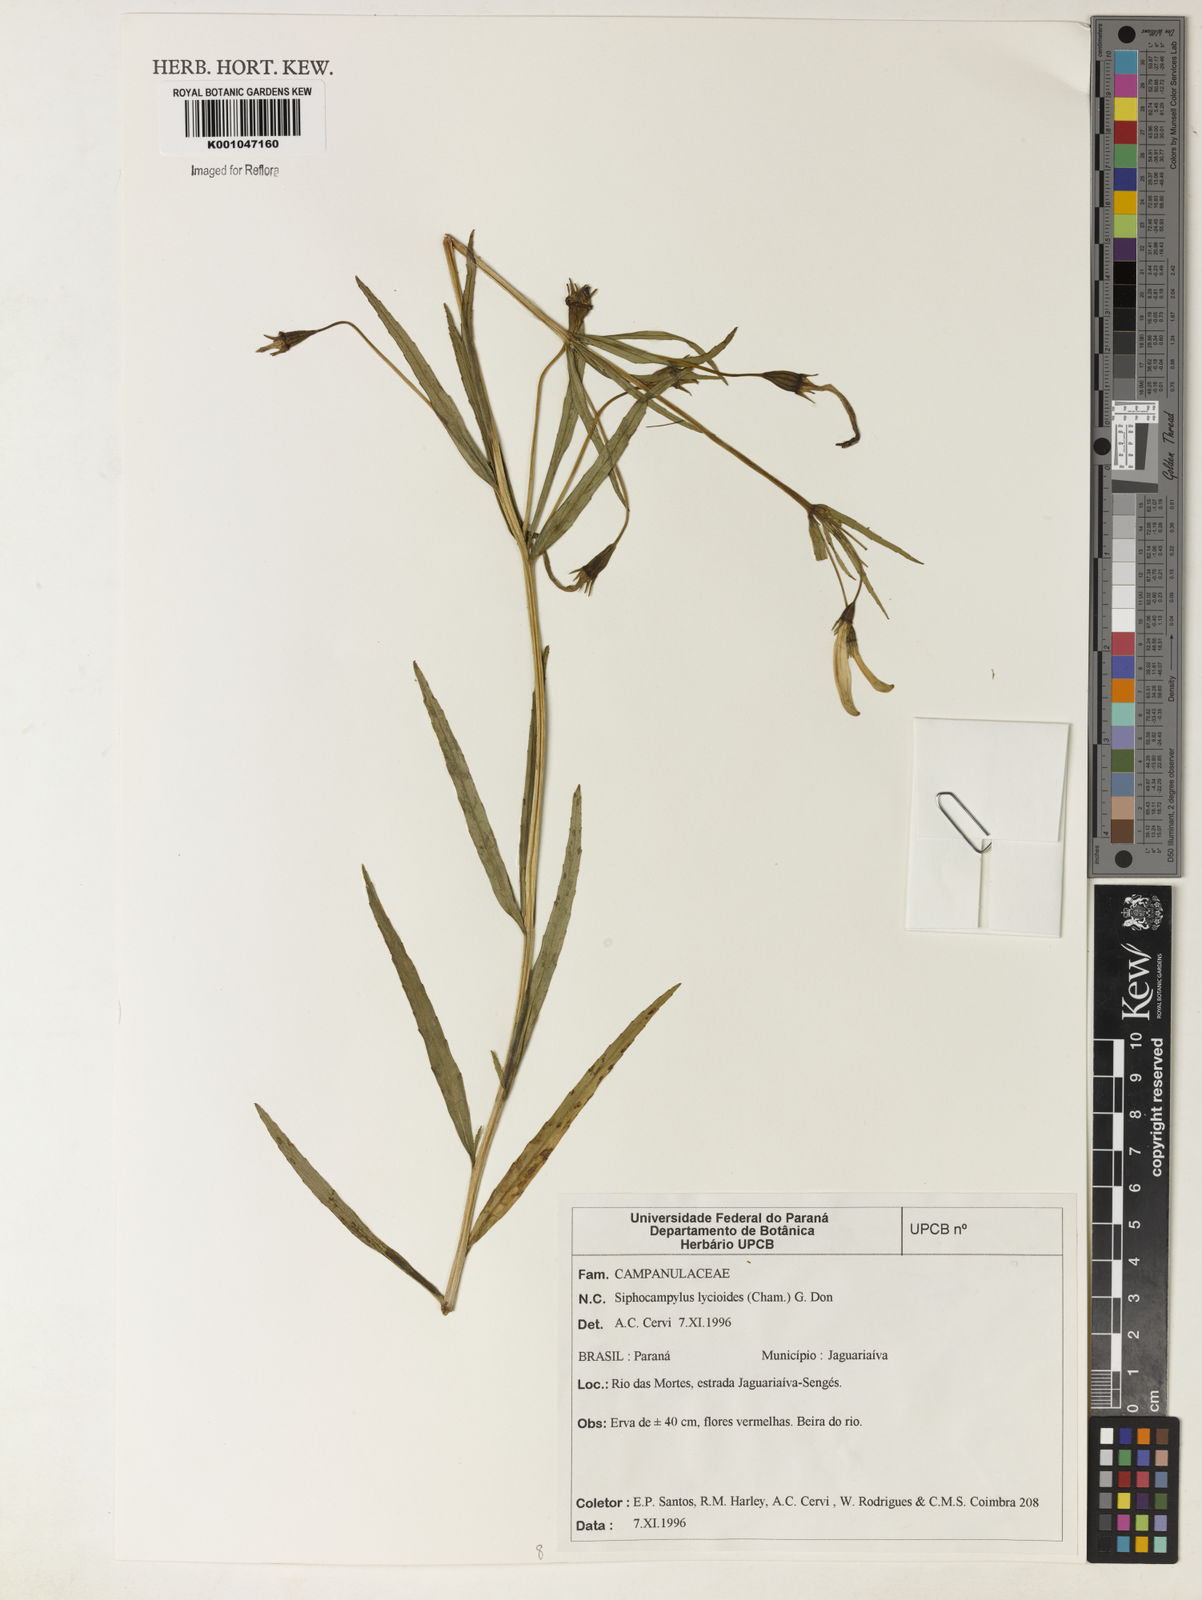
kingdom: Plantae
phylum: Tracheophyta
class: Magnoliopsida
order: Asterales
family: Campanulaceae
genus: Siphocampylus
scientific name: Siphocampylus lycioides
